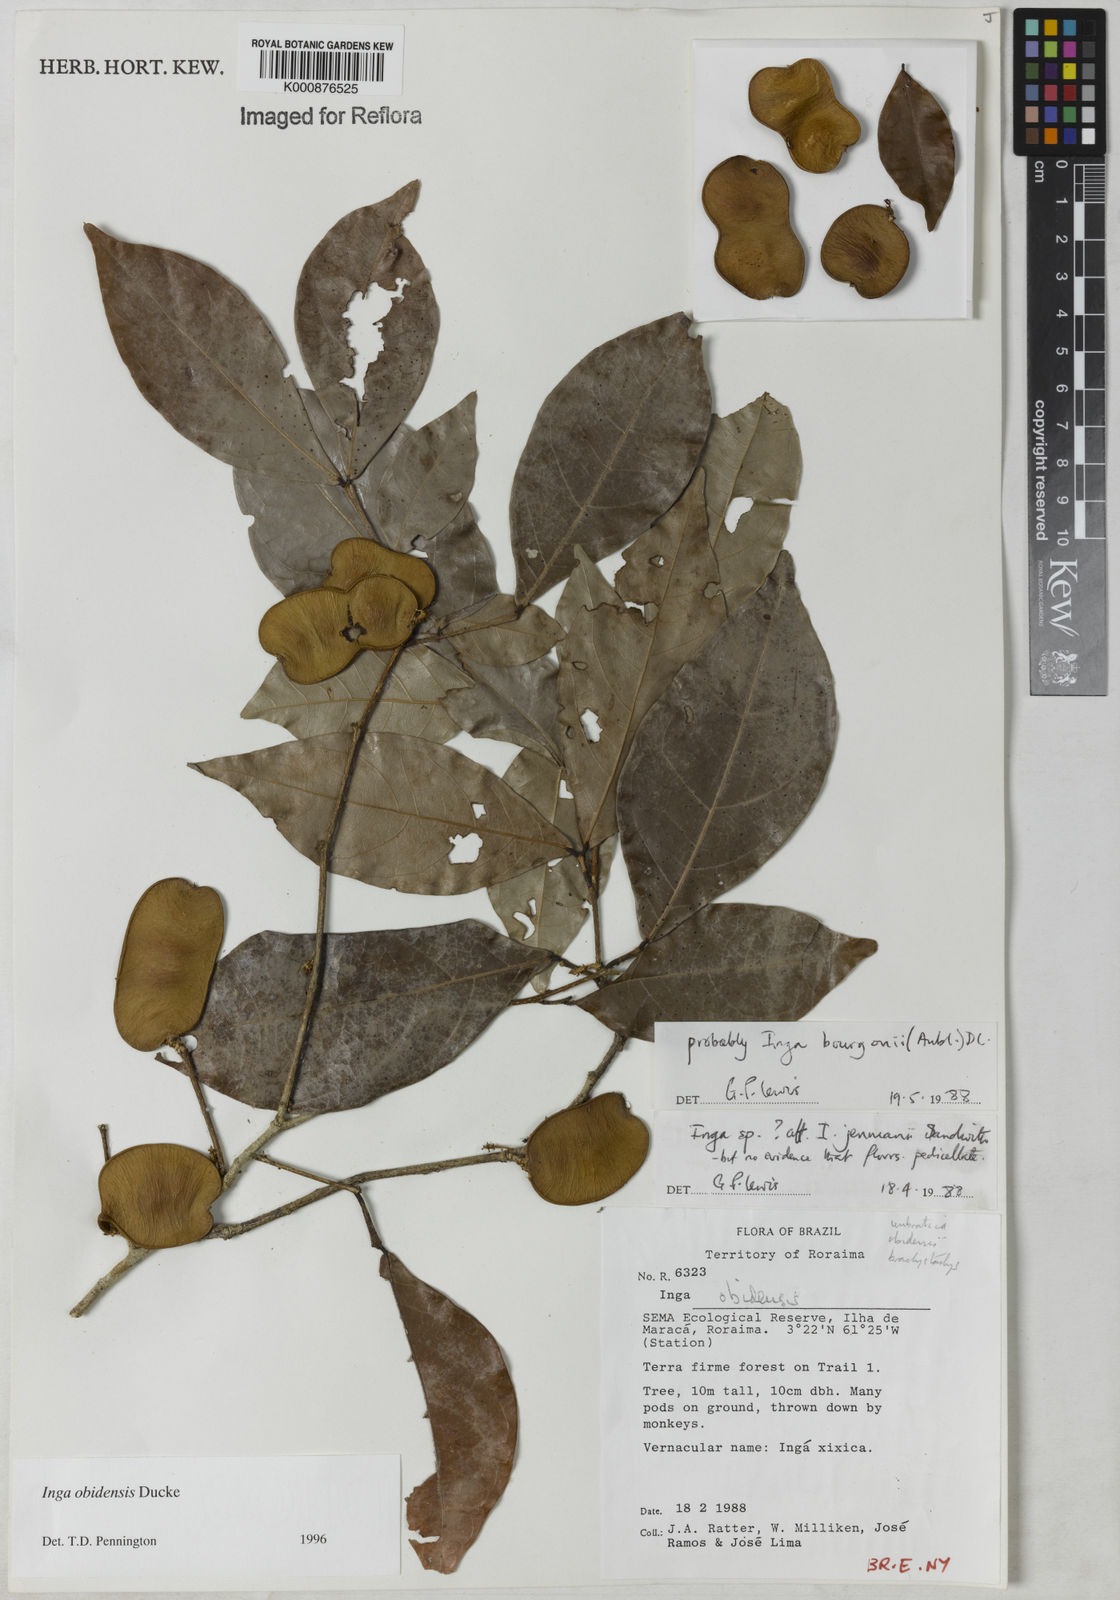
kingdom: Plantae
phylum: Tracheophyta
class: Magnoliopsida
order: Fabales
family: Fabaceae
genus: Inga
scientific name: Inga obidensis
